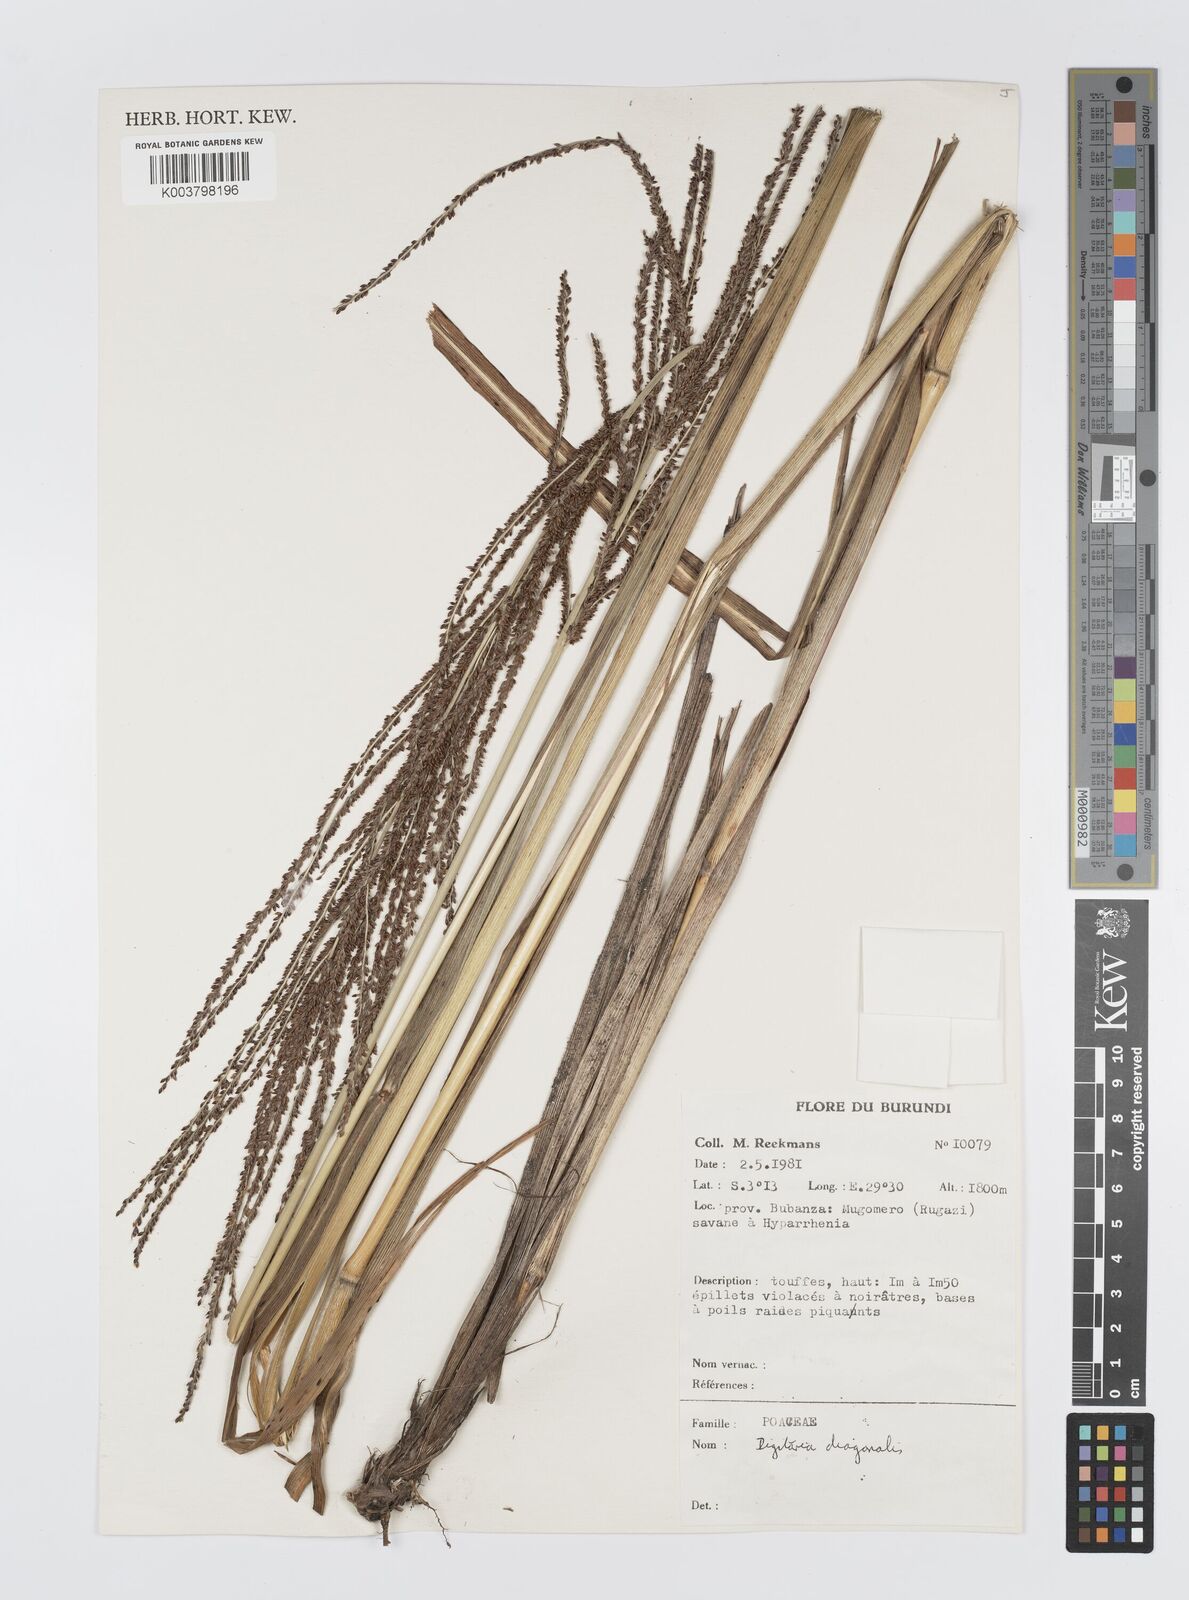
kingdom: Plantae
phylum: Tracheophyta
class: Liliopsida
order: Poales
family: Poaceae
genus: Digitaria
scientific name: Digitaria diagonalis
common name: Brown-seed finger grass
